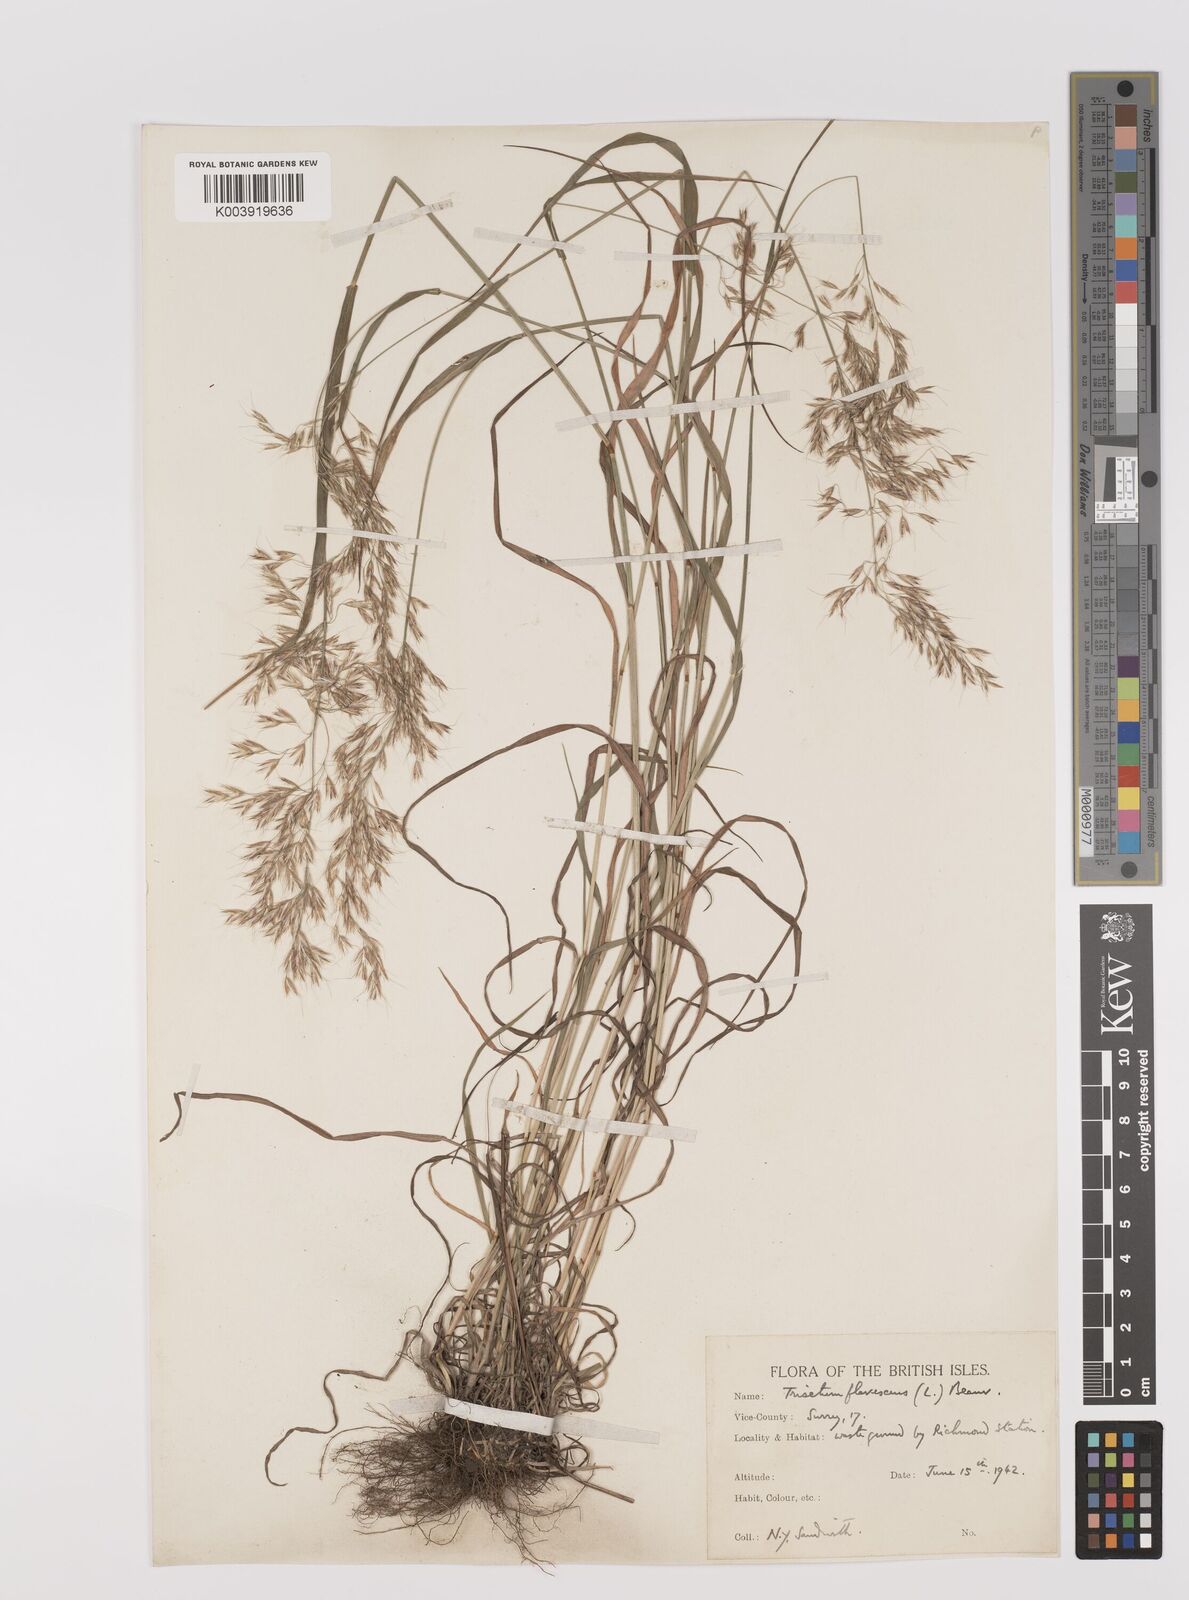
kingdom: Plantae
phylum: Tracheophyta
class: Liliopsida
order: Poales
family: Poaceae
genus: Trisetum
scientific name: Trisetum flavescens
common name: Yellow oat-grass
